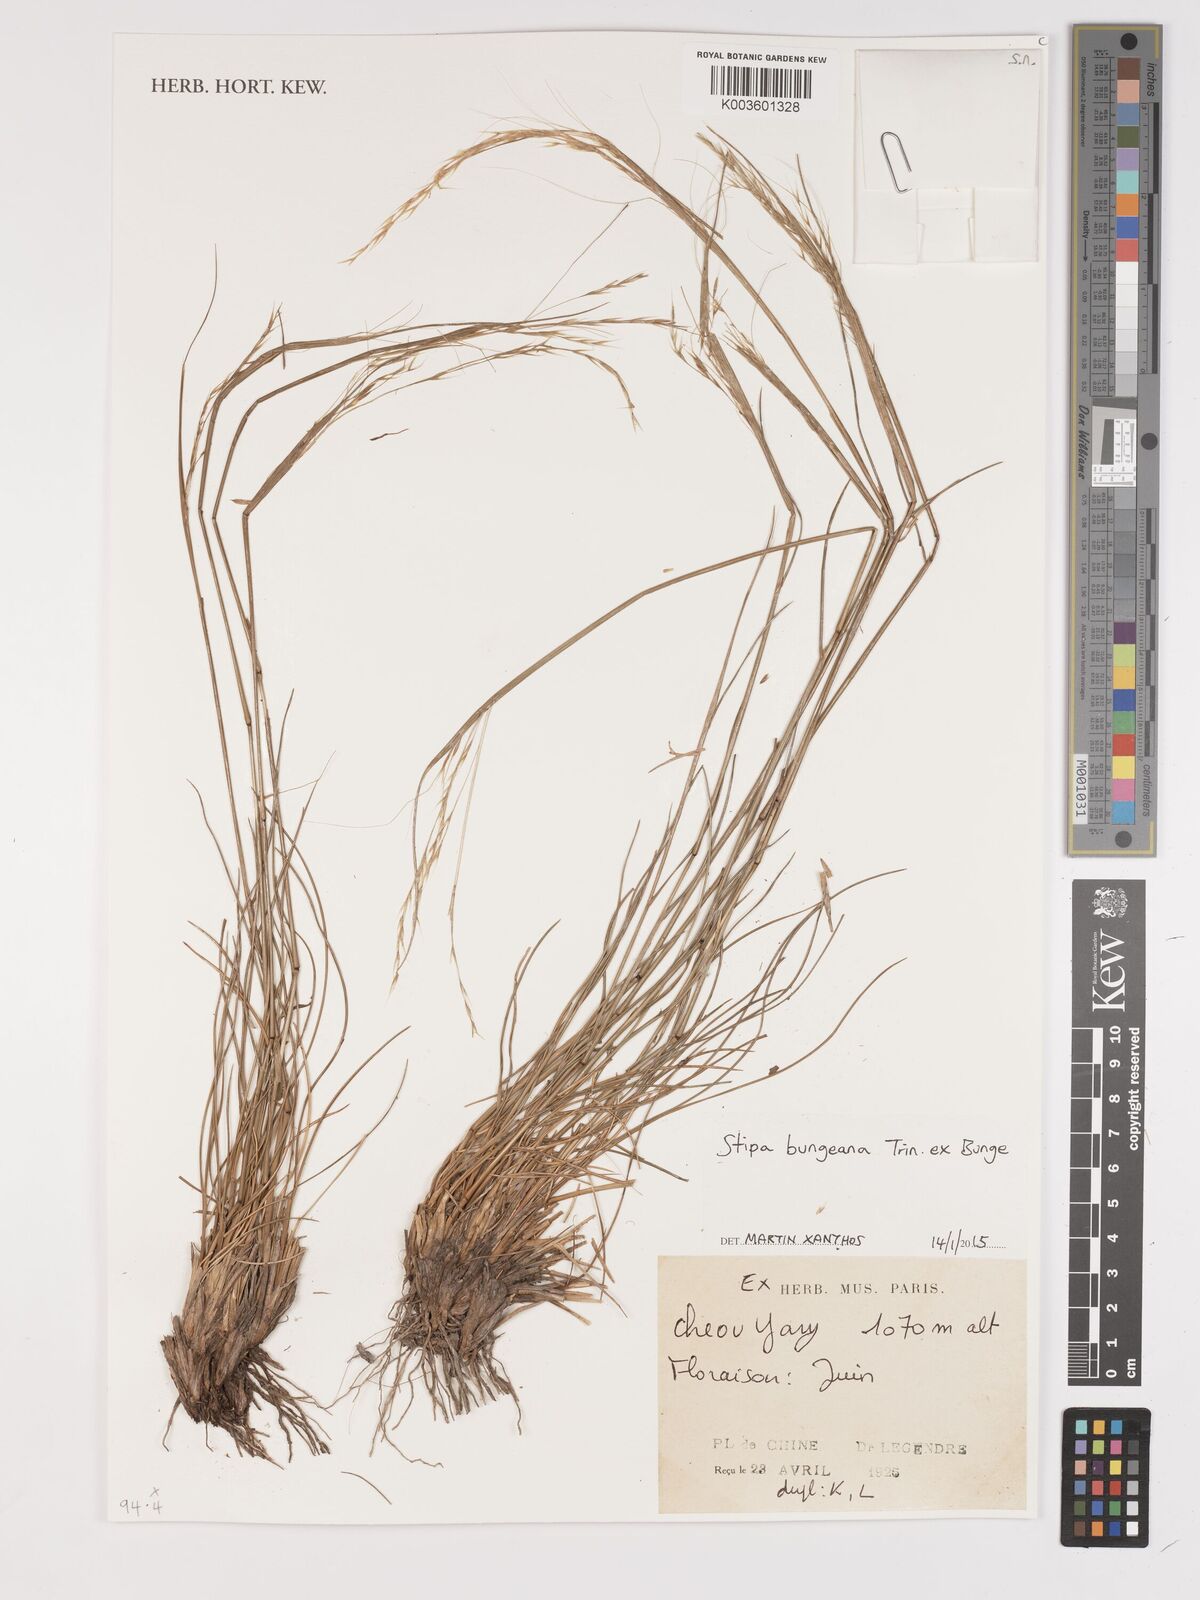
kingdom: Plantae
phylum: Tracheophyta
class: Liliopsida
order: Poales
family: Poaceae
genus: Stipa
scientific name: Stipa bungeana
